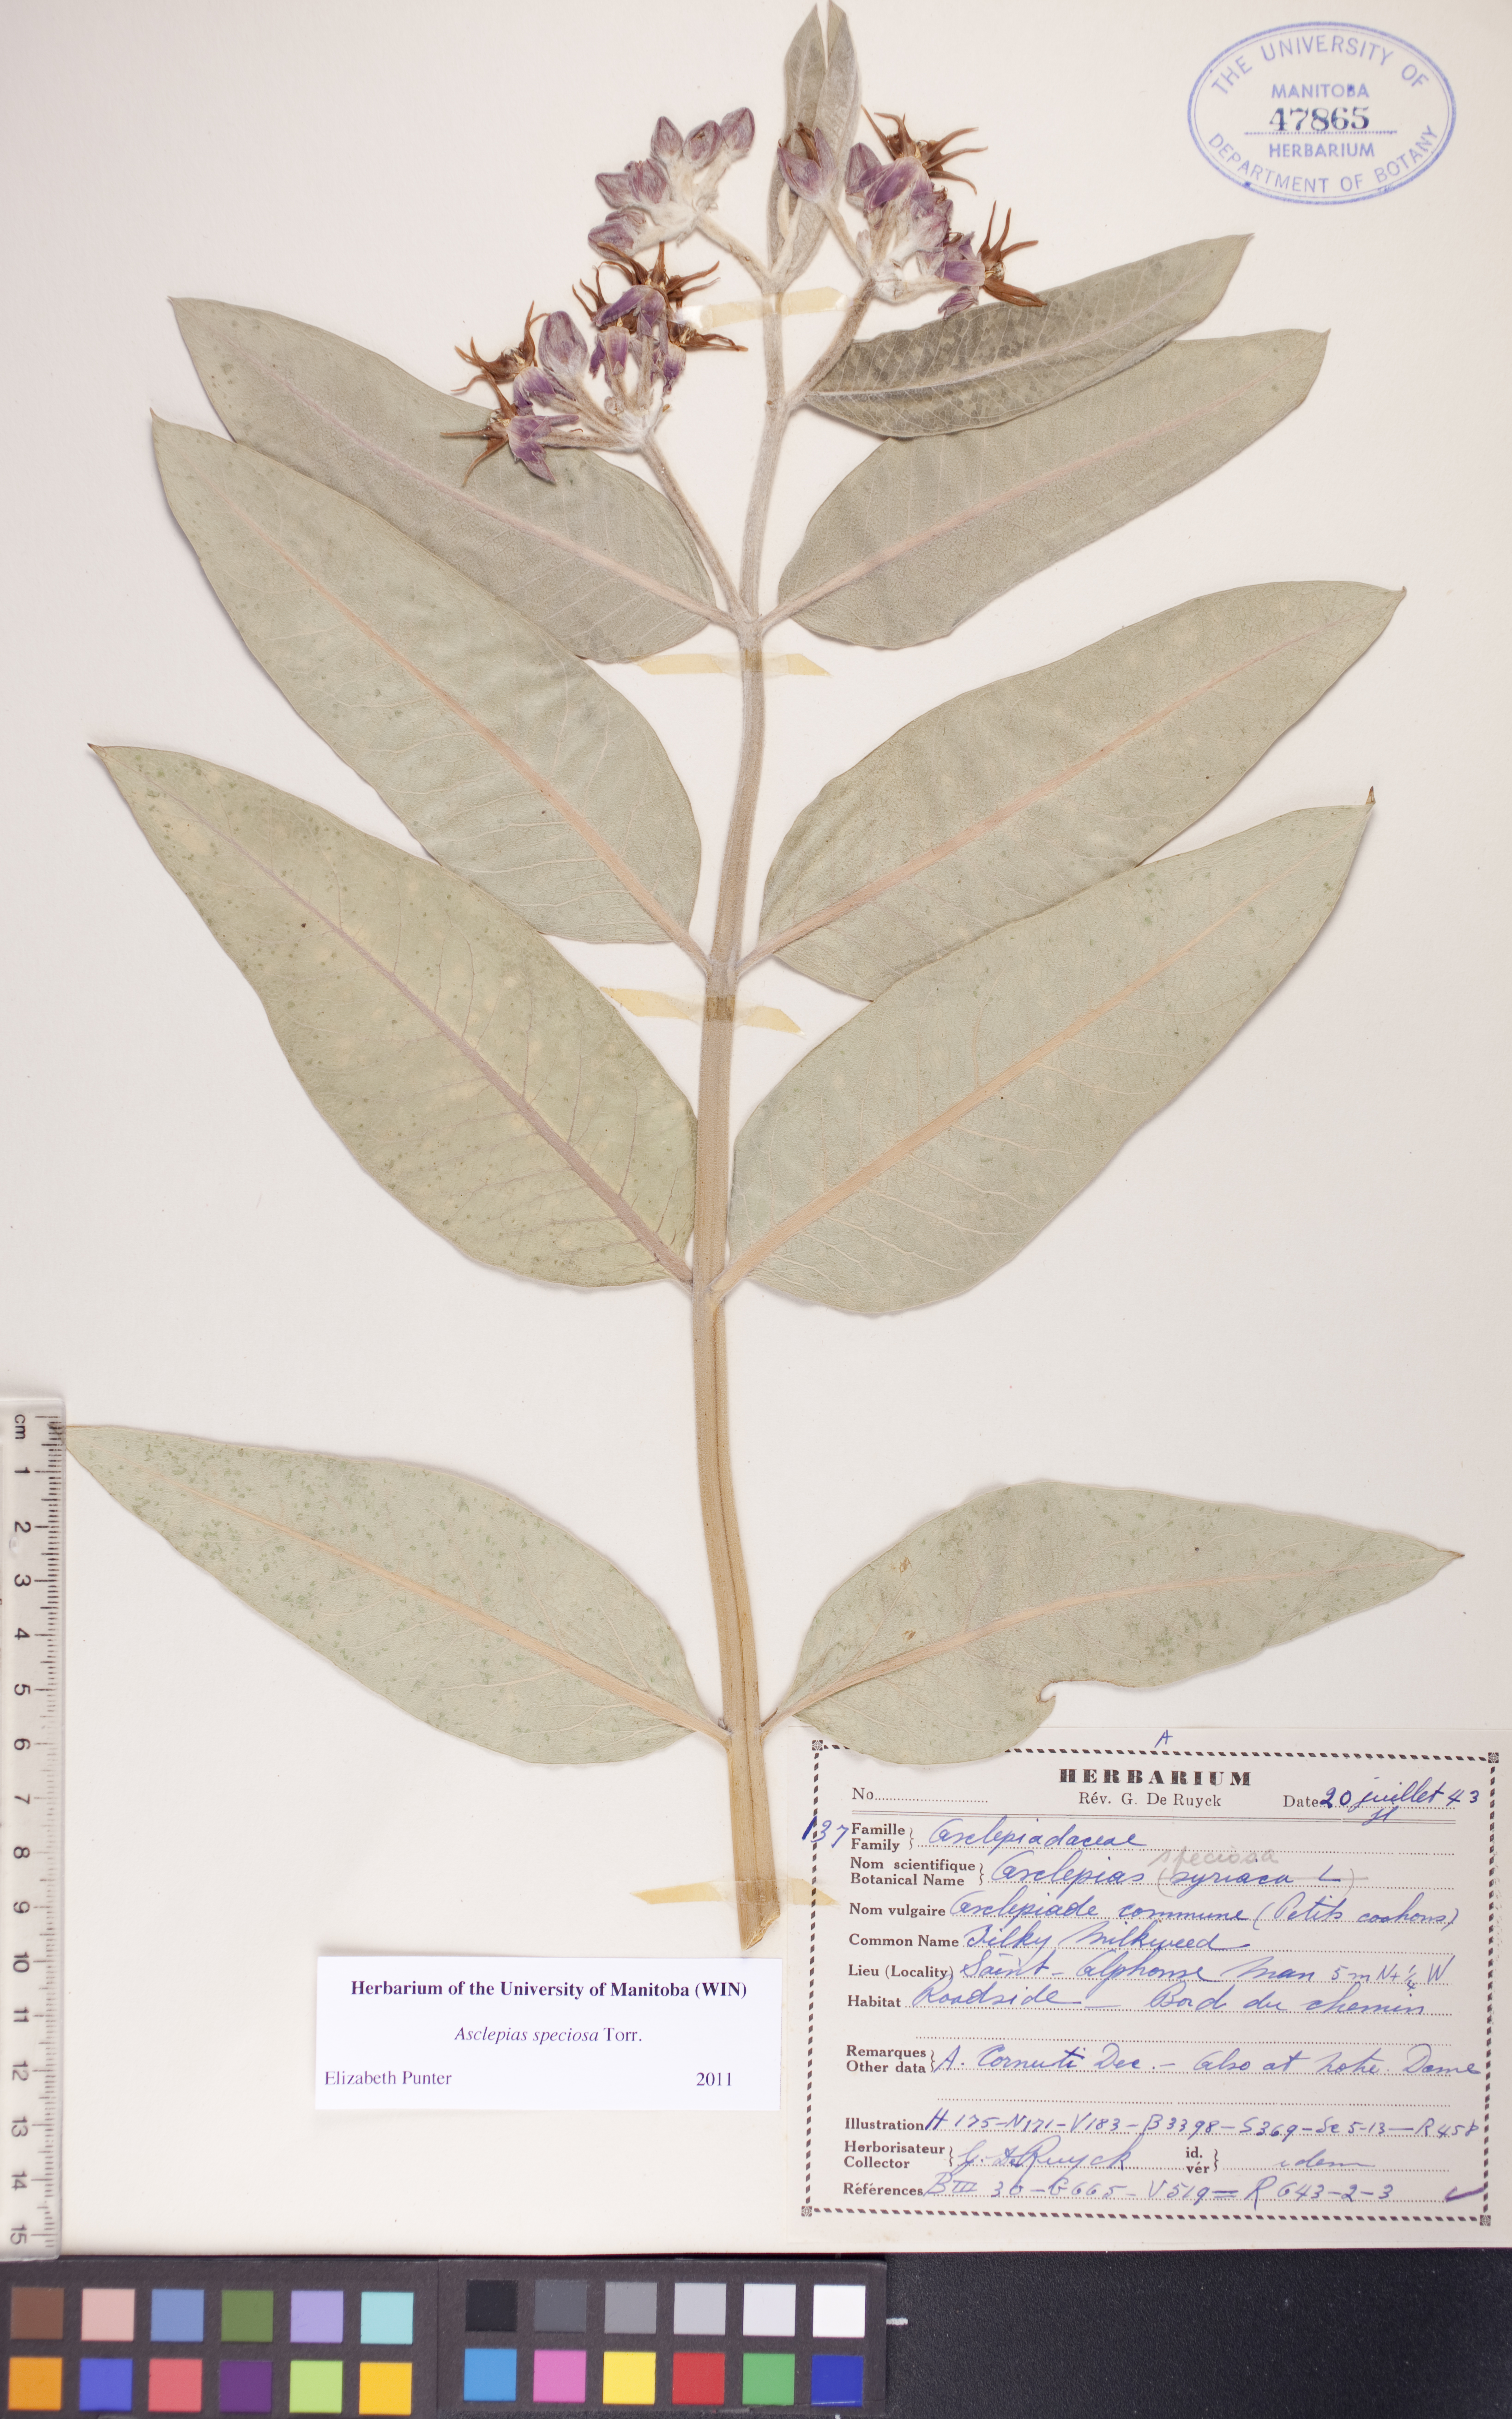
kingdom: Plantae
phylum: Tracheophyta
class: Magnoliopsida
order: Gentianales
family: Apocynaceae
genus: Asclepias
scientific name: Asclepias speciosa
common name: Showy milkweed
